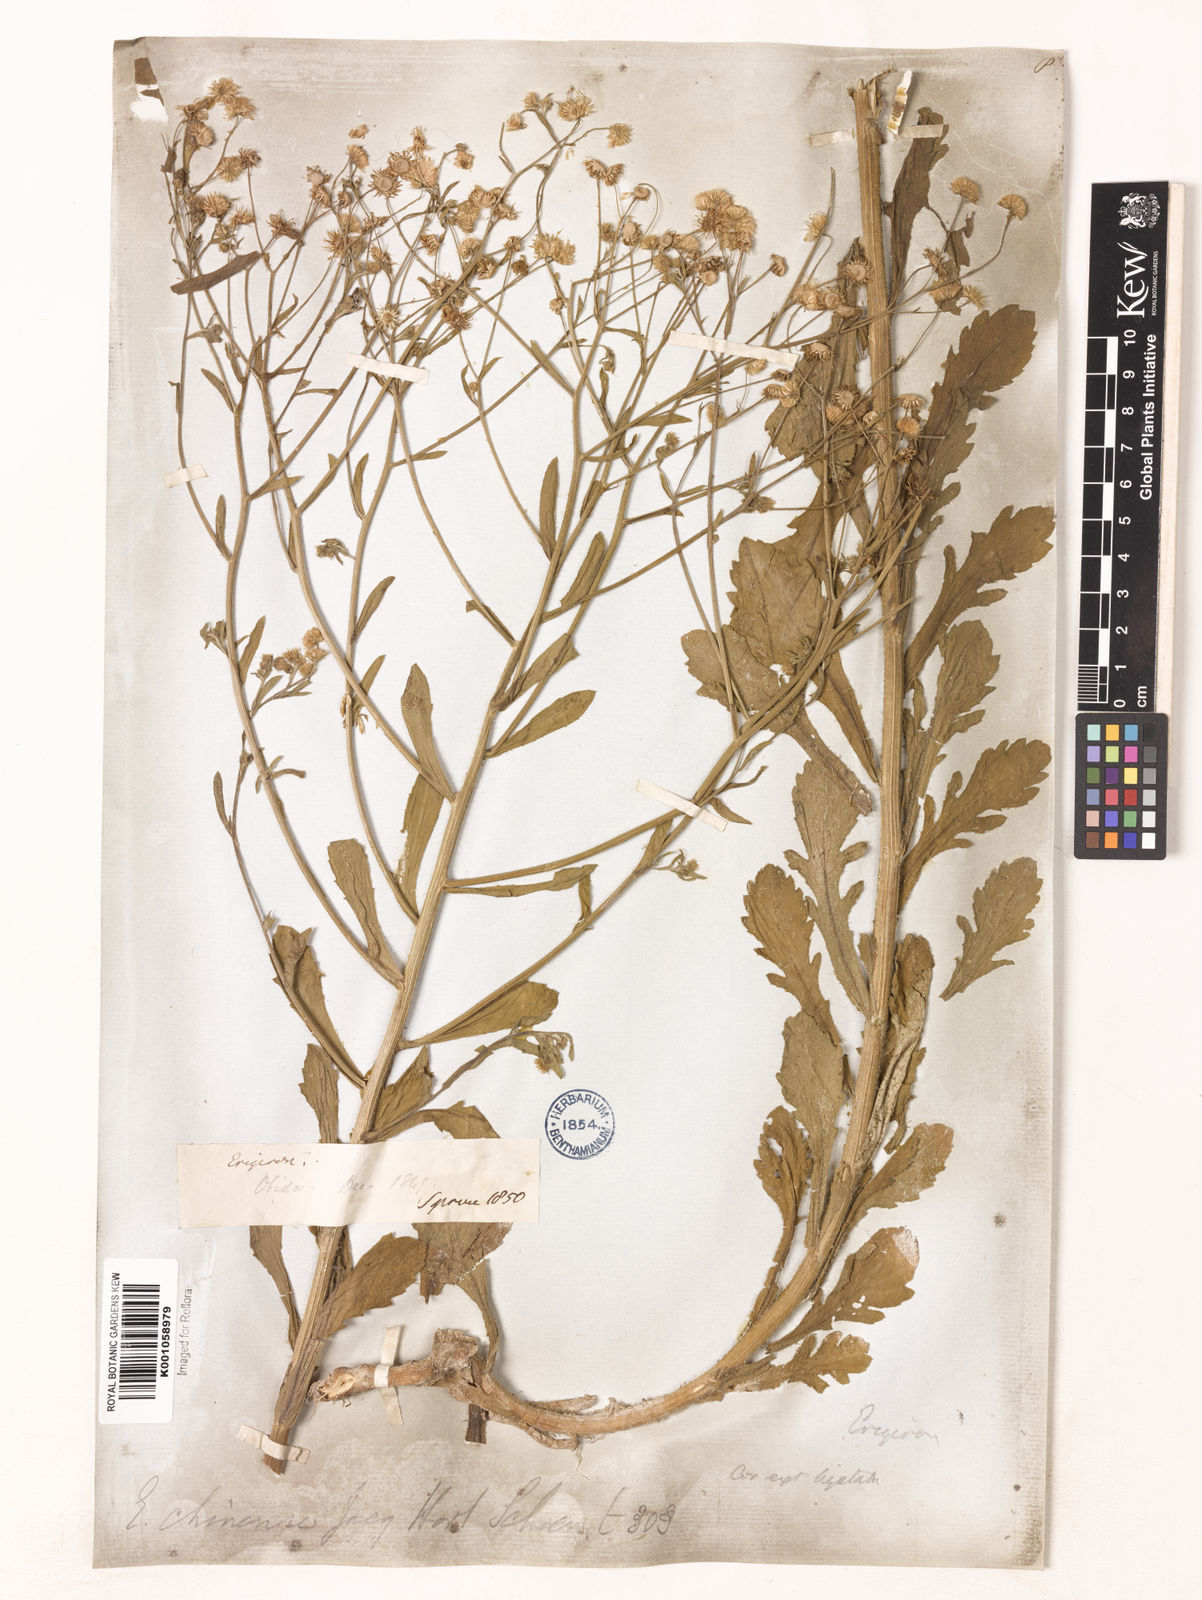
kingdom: Plantae
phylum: Tracheophyta
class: Magnoliopsida
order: Asterales
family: Asteraceae
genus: Erigeron
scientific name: Erigeron
